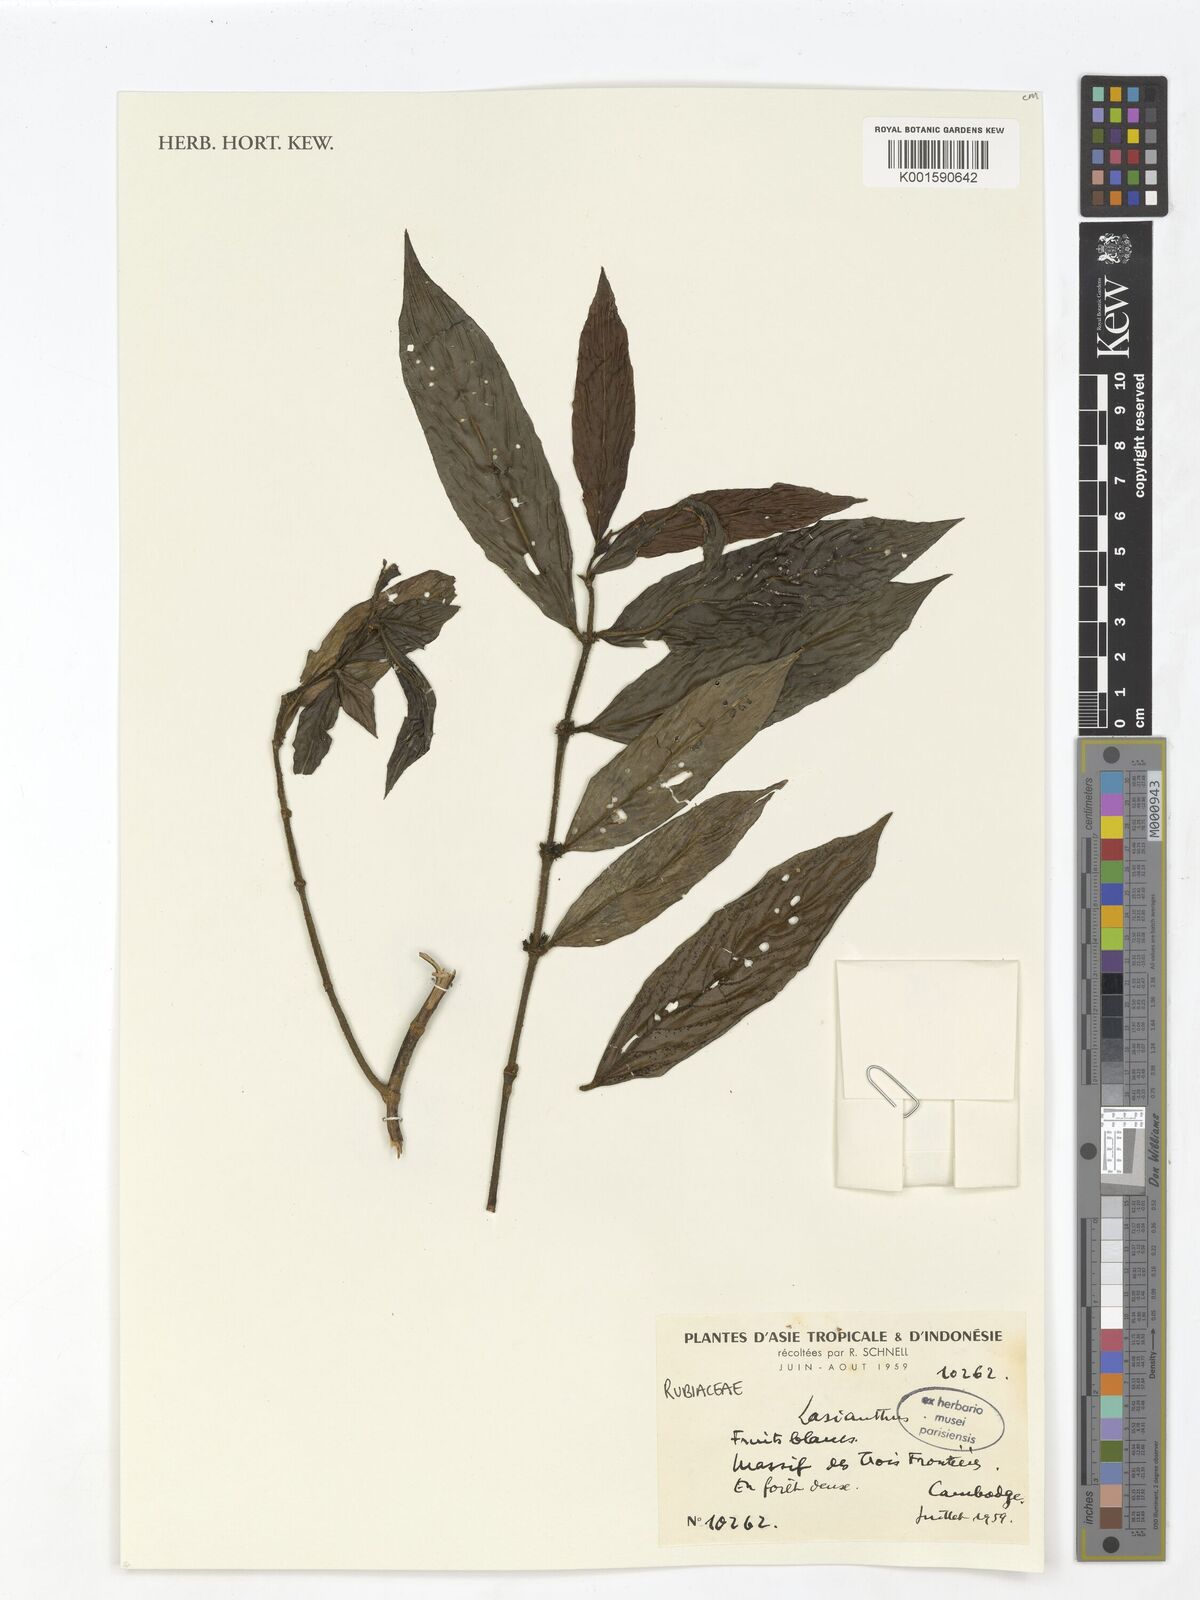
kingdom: Plantae
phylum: Tracheophyta
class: Magnoliopsida
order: Gentianales
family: Rubiaceae
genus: Lasianthus
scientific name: Lasianthus
